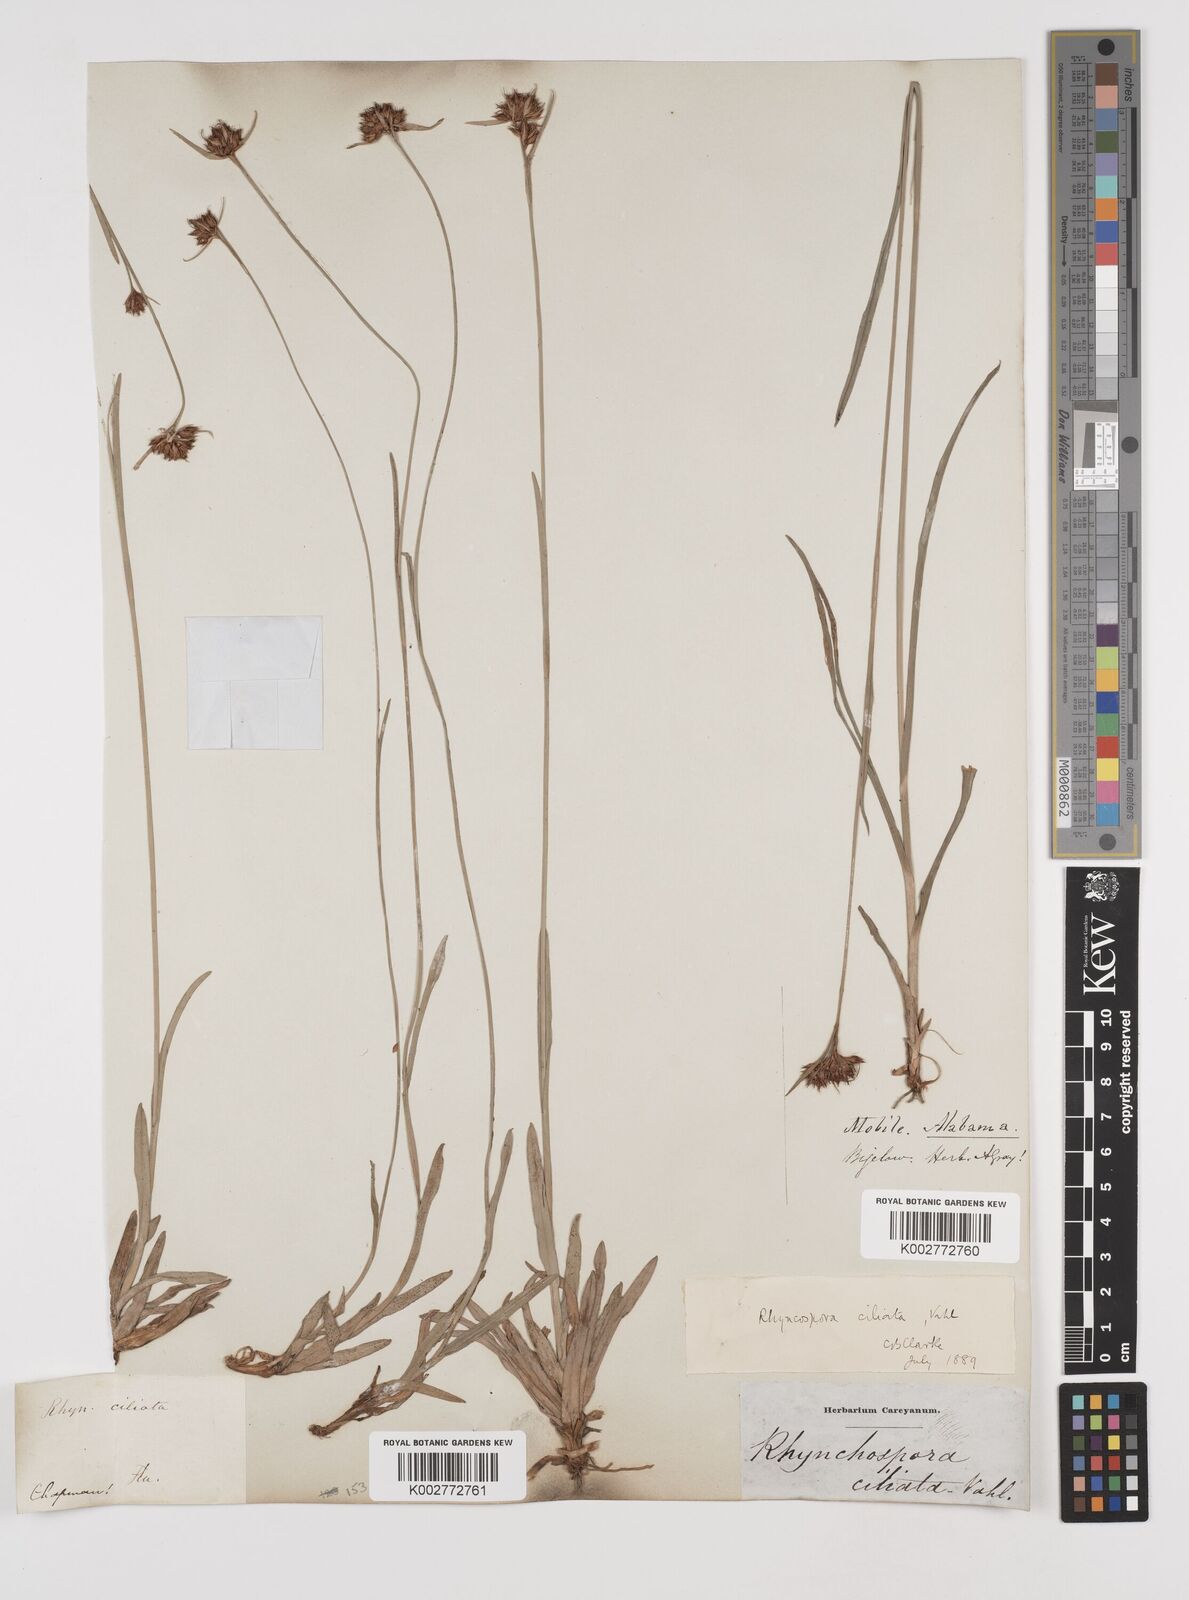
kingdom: Plantae
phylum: Tracheophyta
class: Liliopsida
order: Poales
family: Cyperaceae
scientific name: Cyperaceae
